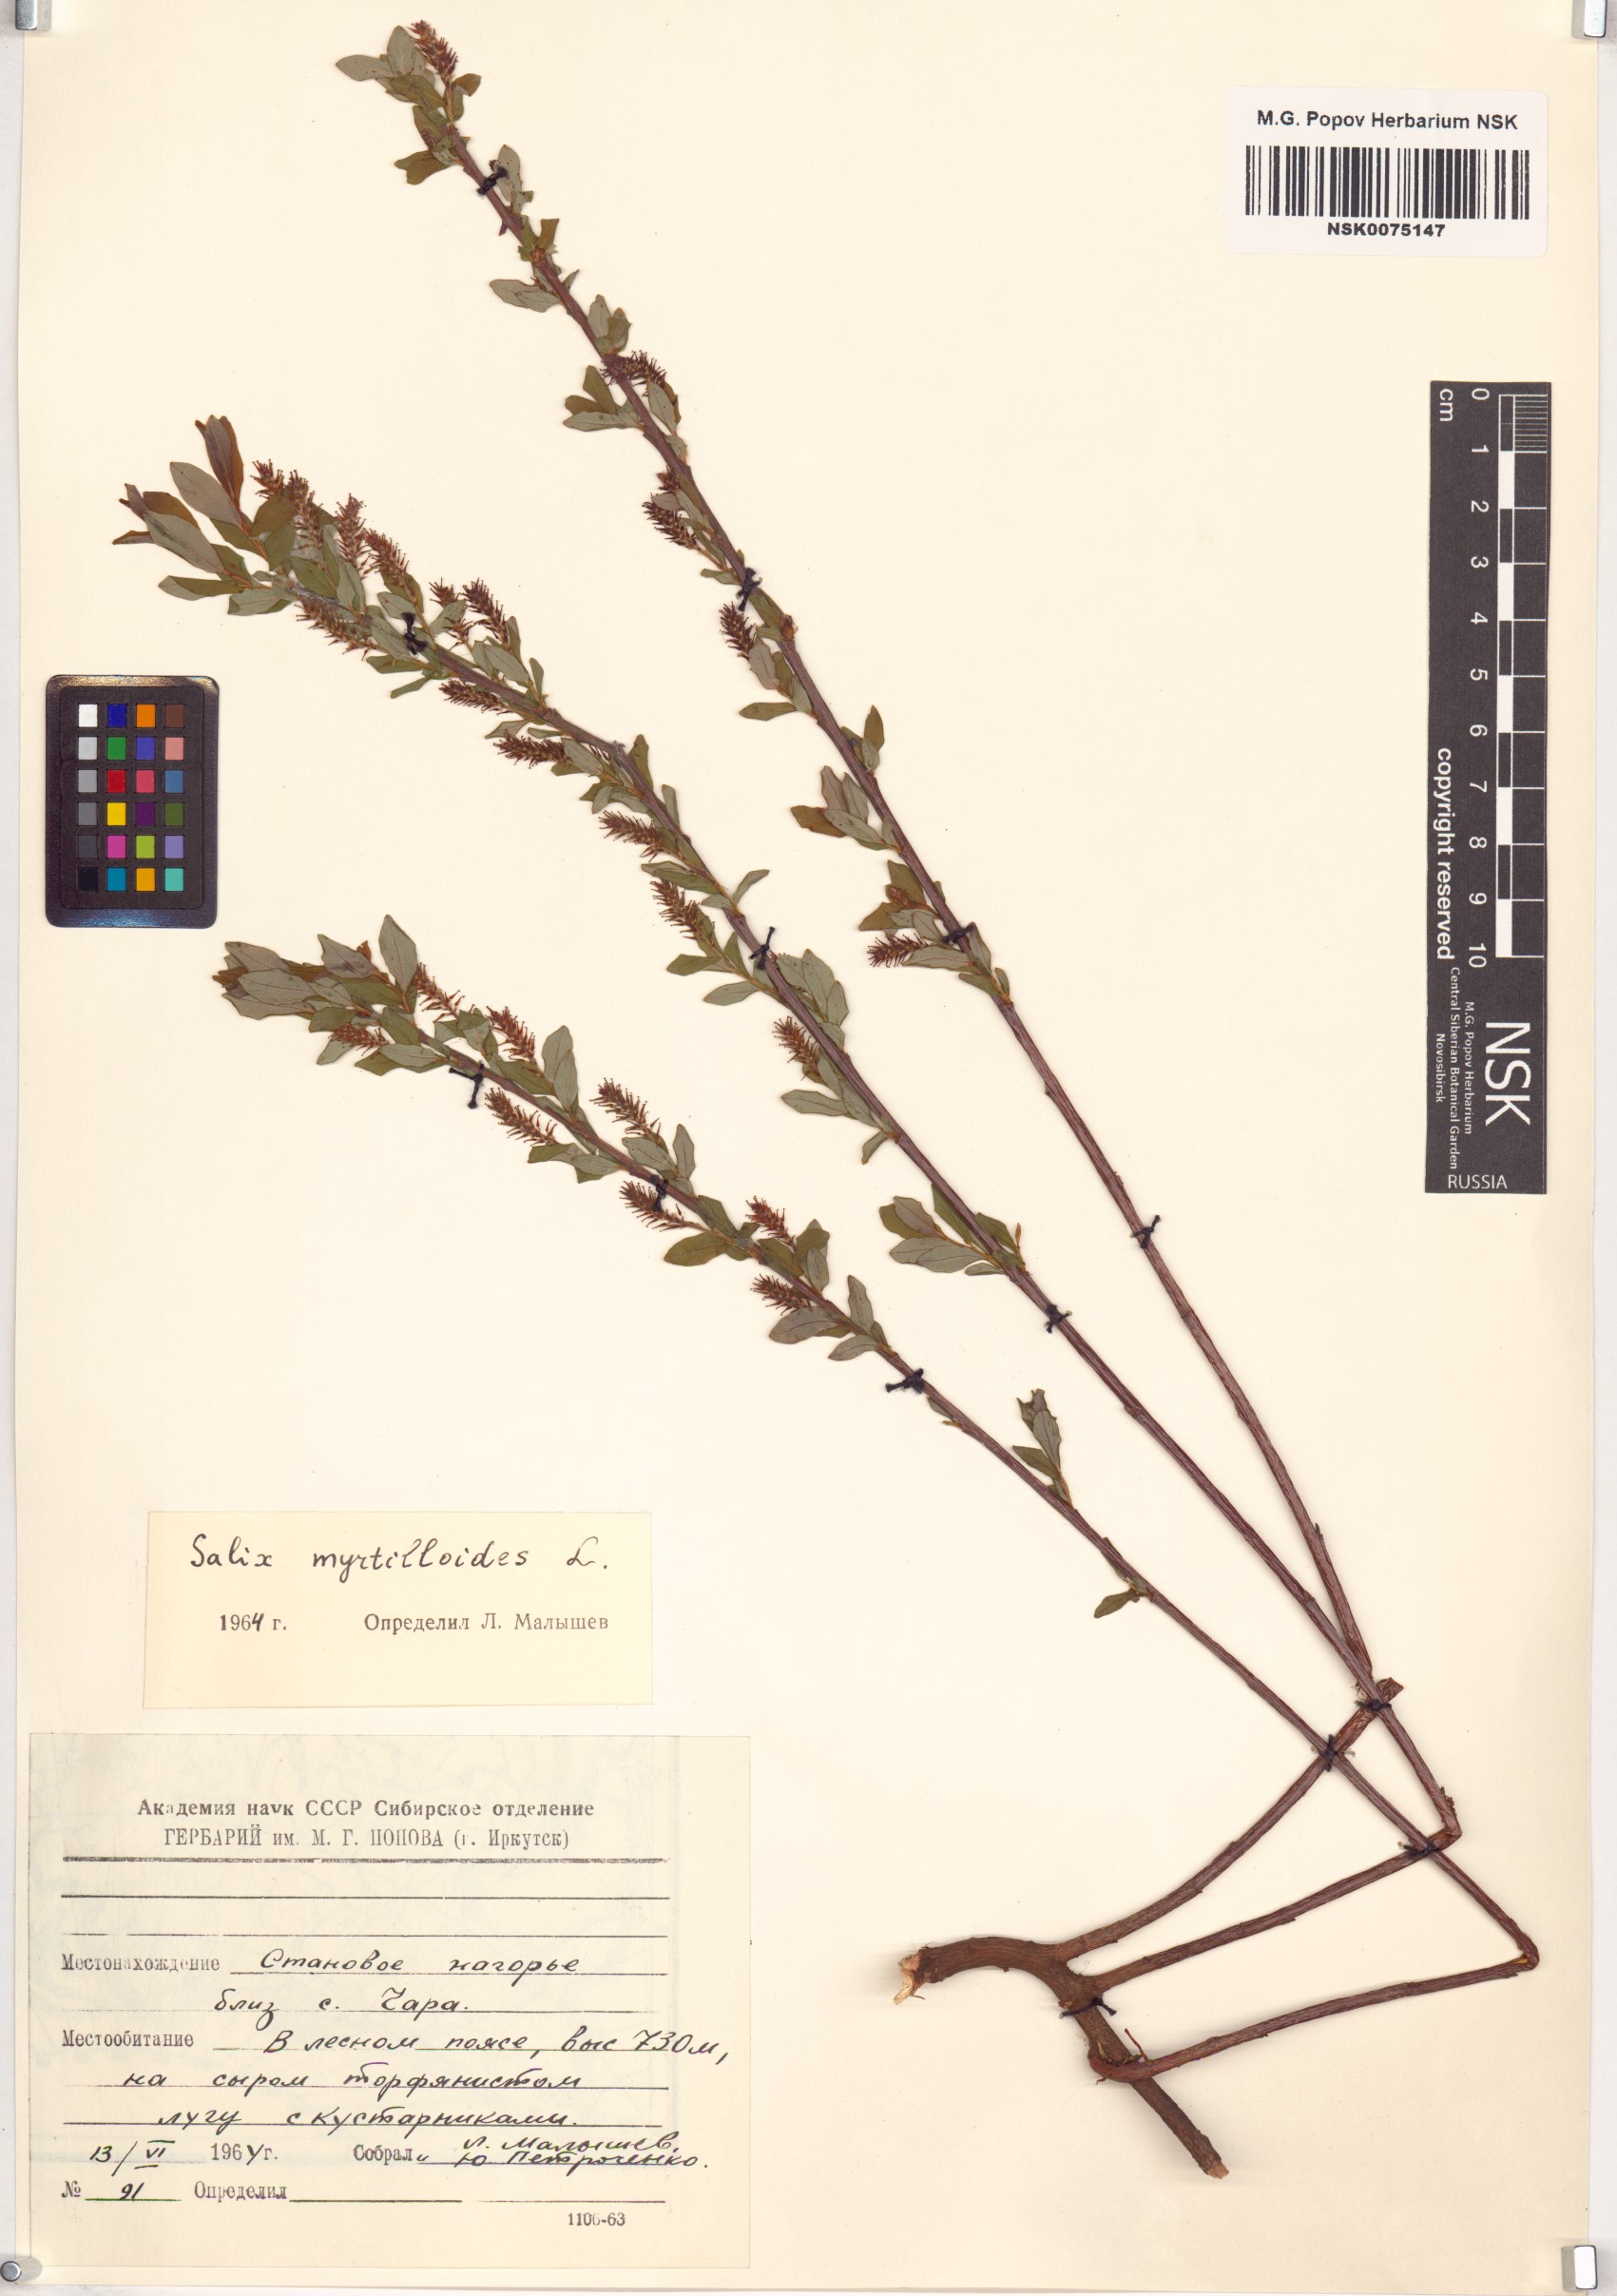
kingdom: Plantae
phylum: Tracheophyta
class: Magnoliopsida
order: Malpighiales
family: Salicaceae
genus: Salix
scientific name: Salix myrtilloides
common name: Myrtle-leaved willow
